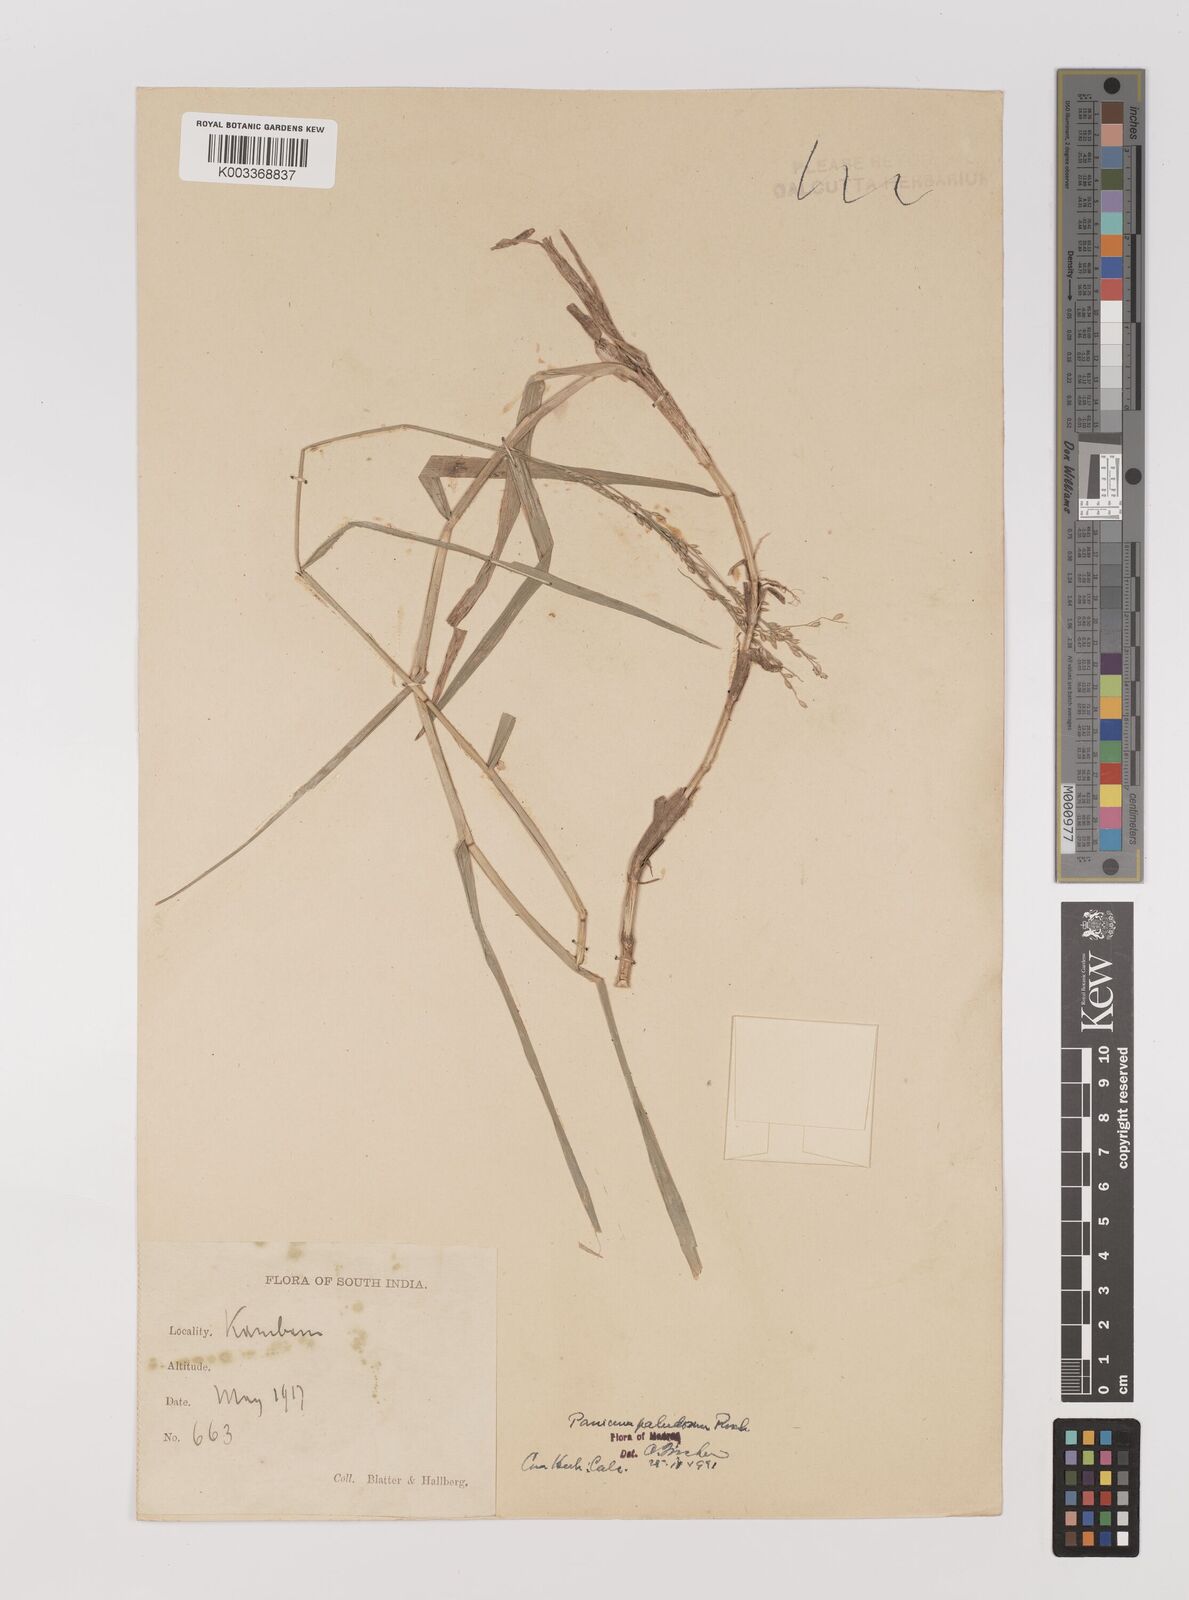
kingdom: Plantae
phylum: Tracheophyta
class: Liliopsida
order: Poales
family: Poaceae
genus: Louisiella
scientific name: Louisiella paludosa
